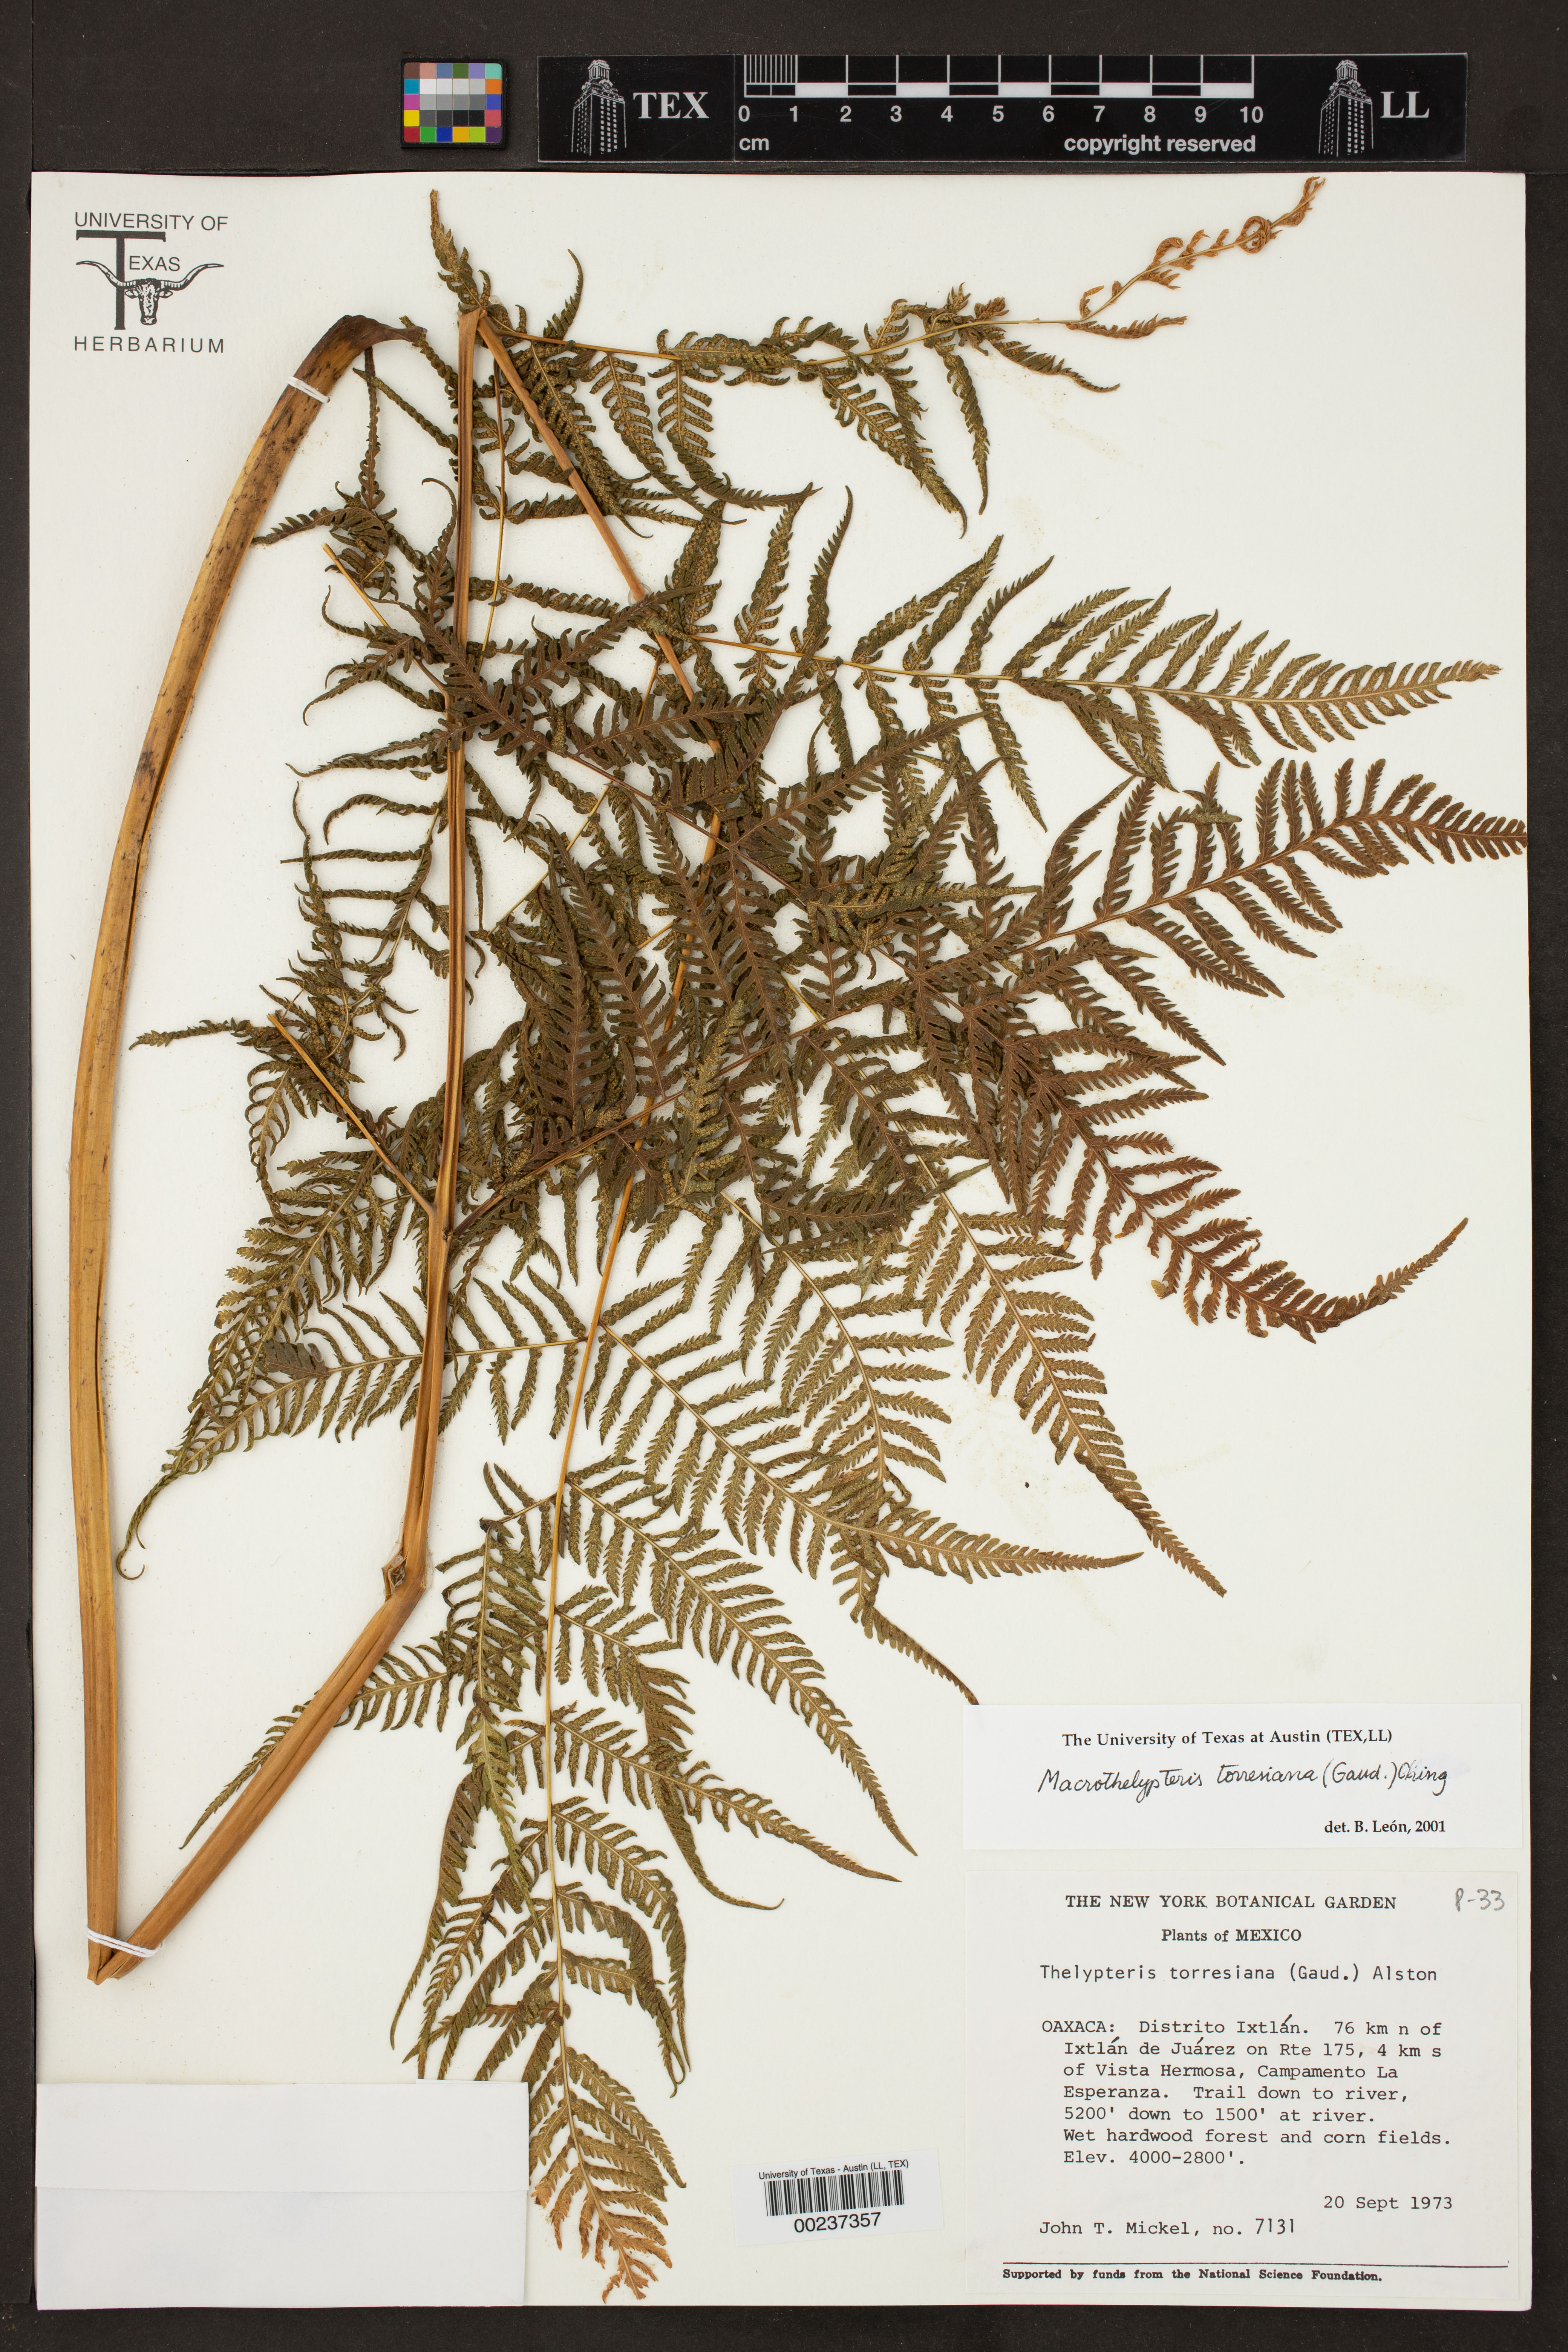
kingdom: Plantae
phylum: Tracheophyta
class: Polypodiopsida
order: Polypodiales
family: Thelypteridaceae
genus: Macrothelypteris
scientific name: Macrothelypteris torresiana
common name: Swordfern
